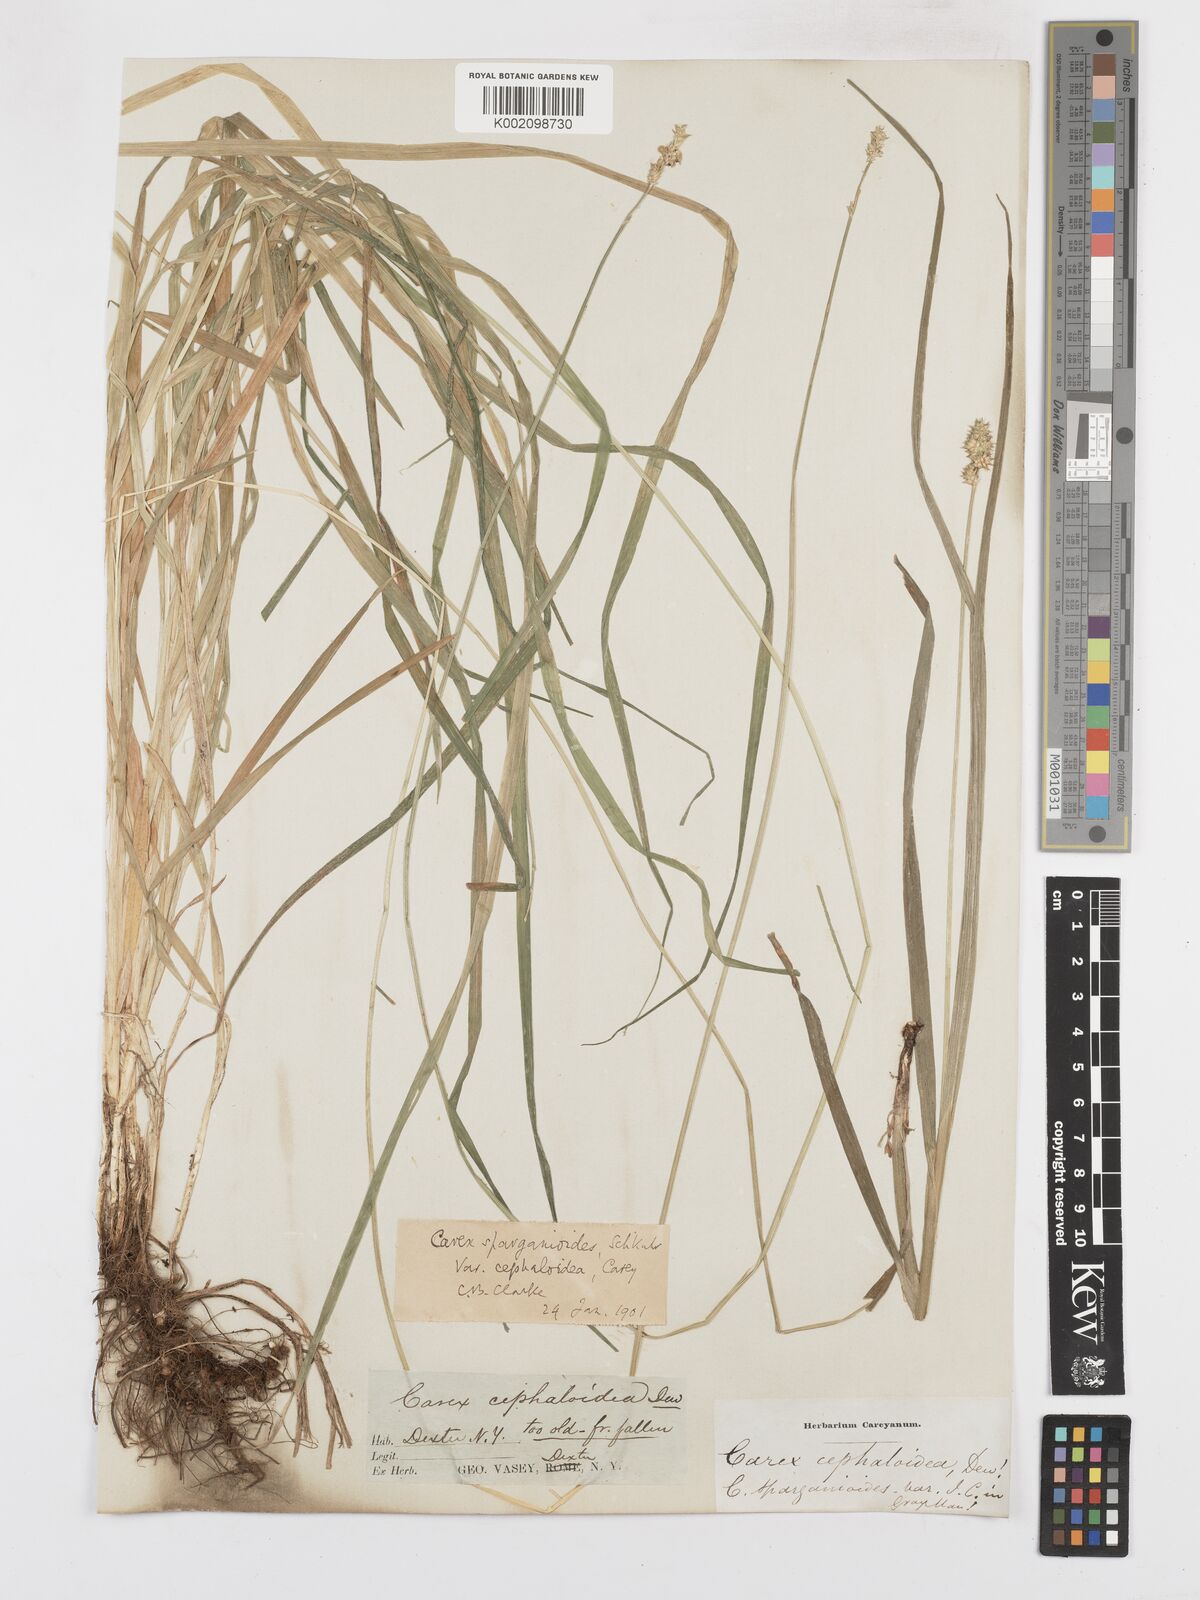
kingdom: Plantae
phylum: Tracheophyta
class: Liliopsida
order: Poales
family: Cyperaceae
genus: Carex
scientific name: Carex cephaloidea
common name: Thin-leaved sedge
